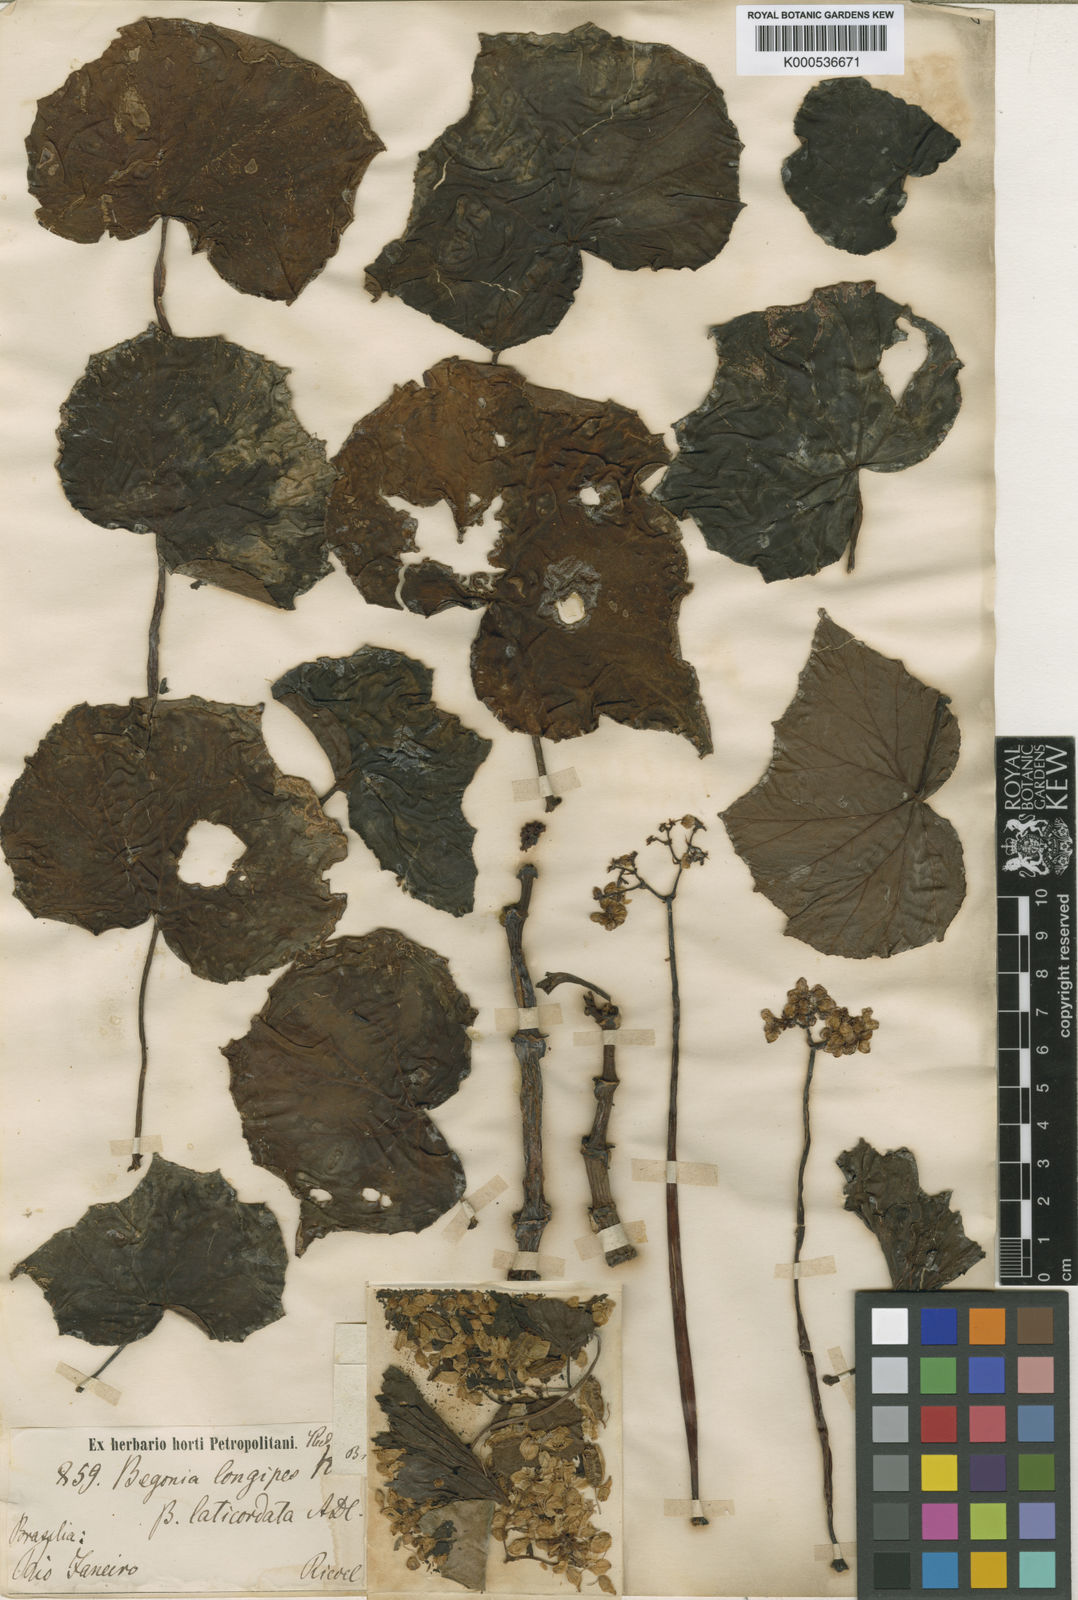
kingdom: Plantae
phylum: Tracheophyta
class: Magnoliopsida
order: Cucurbitales
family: Begoniaceae
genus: Begonia
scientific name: Begonia reniformis
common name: Grapeleaf begonia
